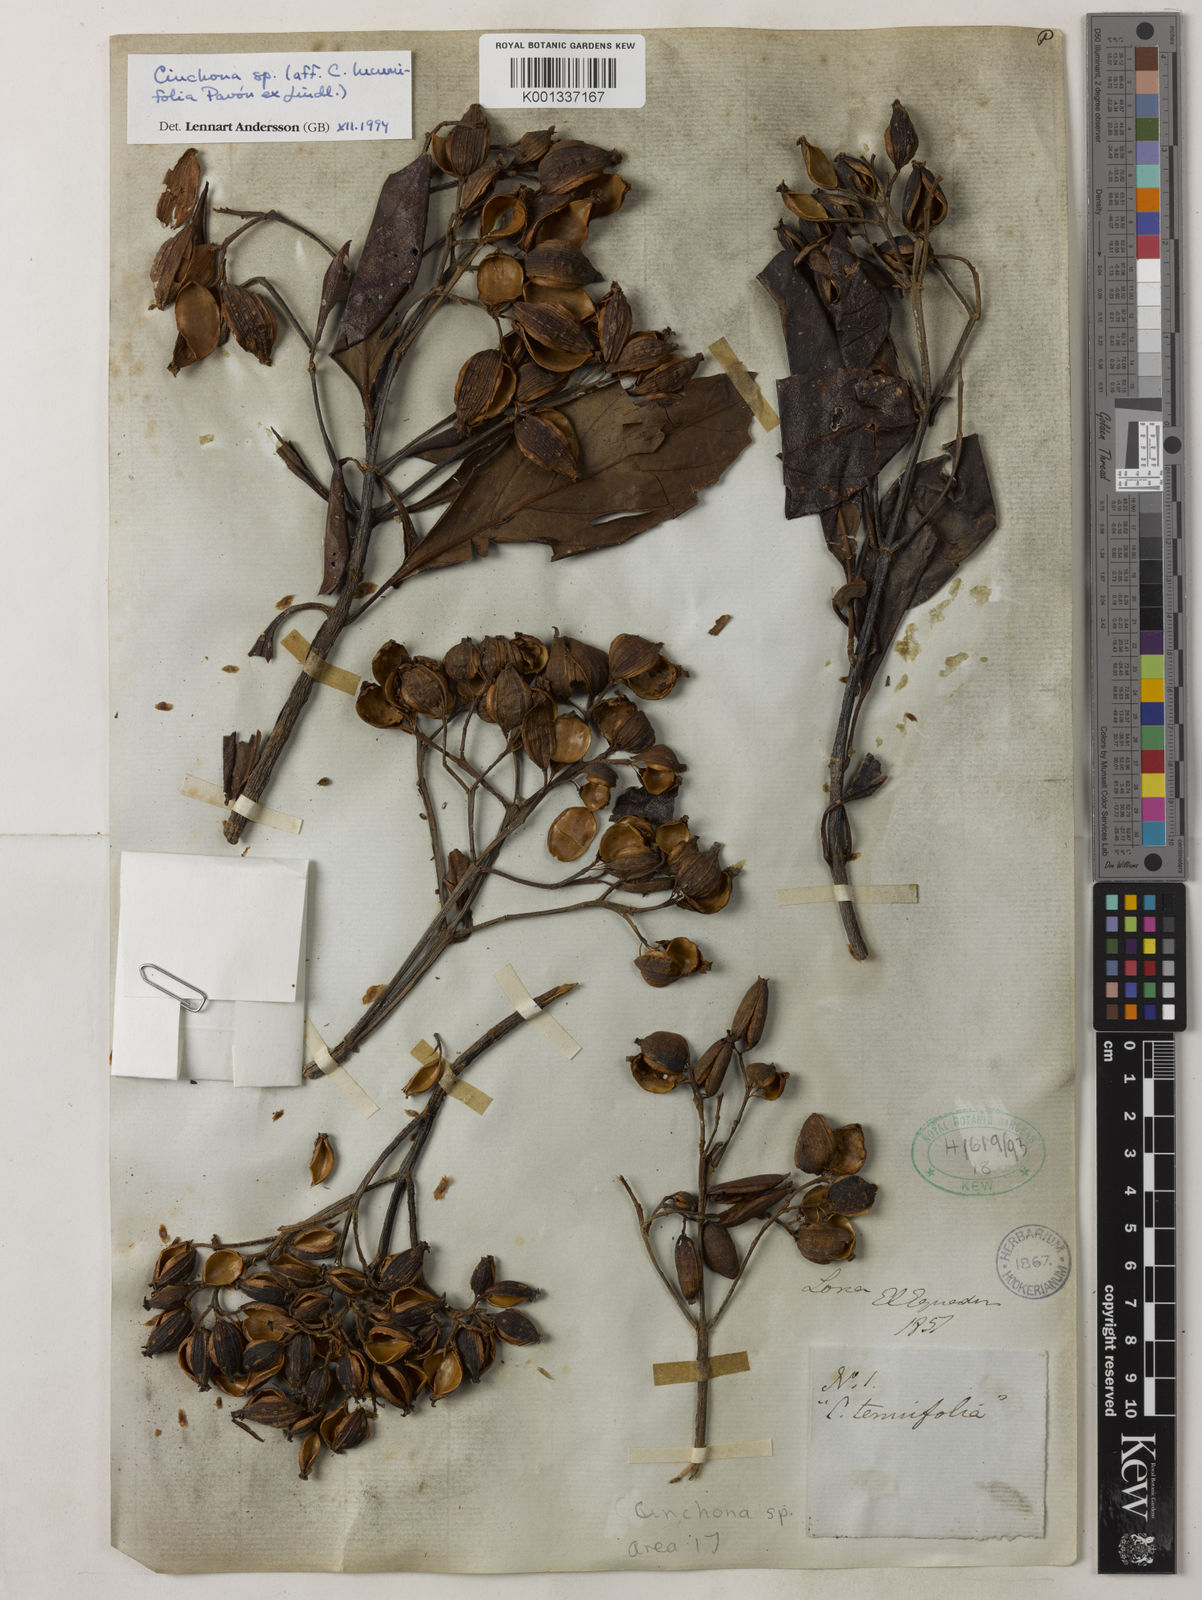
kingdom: Plantae
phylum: Tracheophyta
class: Magnoliopsida
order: Gentianales
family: Rubiaceae
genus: Cinchona
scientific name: Cinchona lucumifolia
